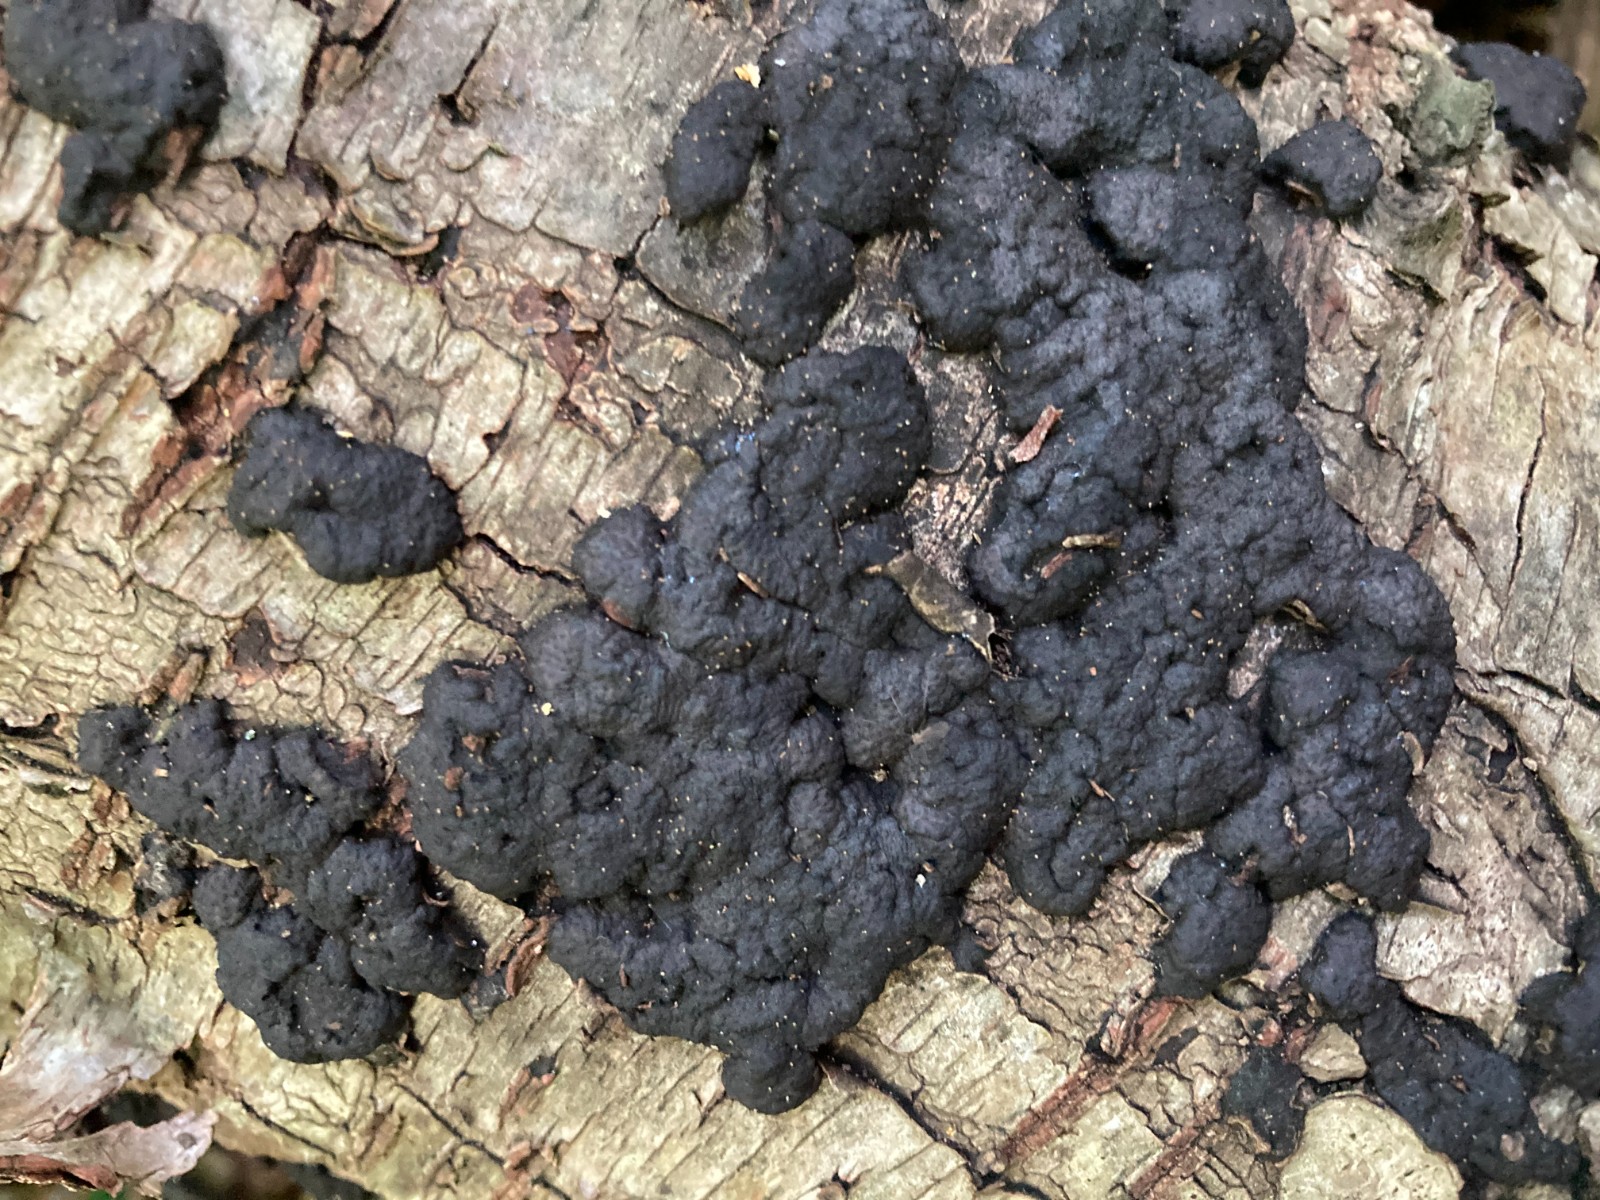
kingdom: Fungi
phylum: Ascomycota
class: Sordariomycetes
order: Xylariales
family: Hypoxylaceae
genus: Jackrogersella
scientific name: Jackrogersella multiformis
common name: foranderlig kulbær
